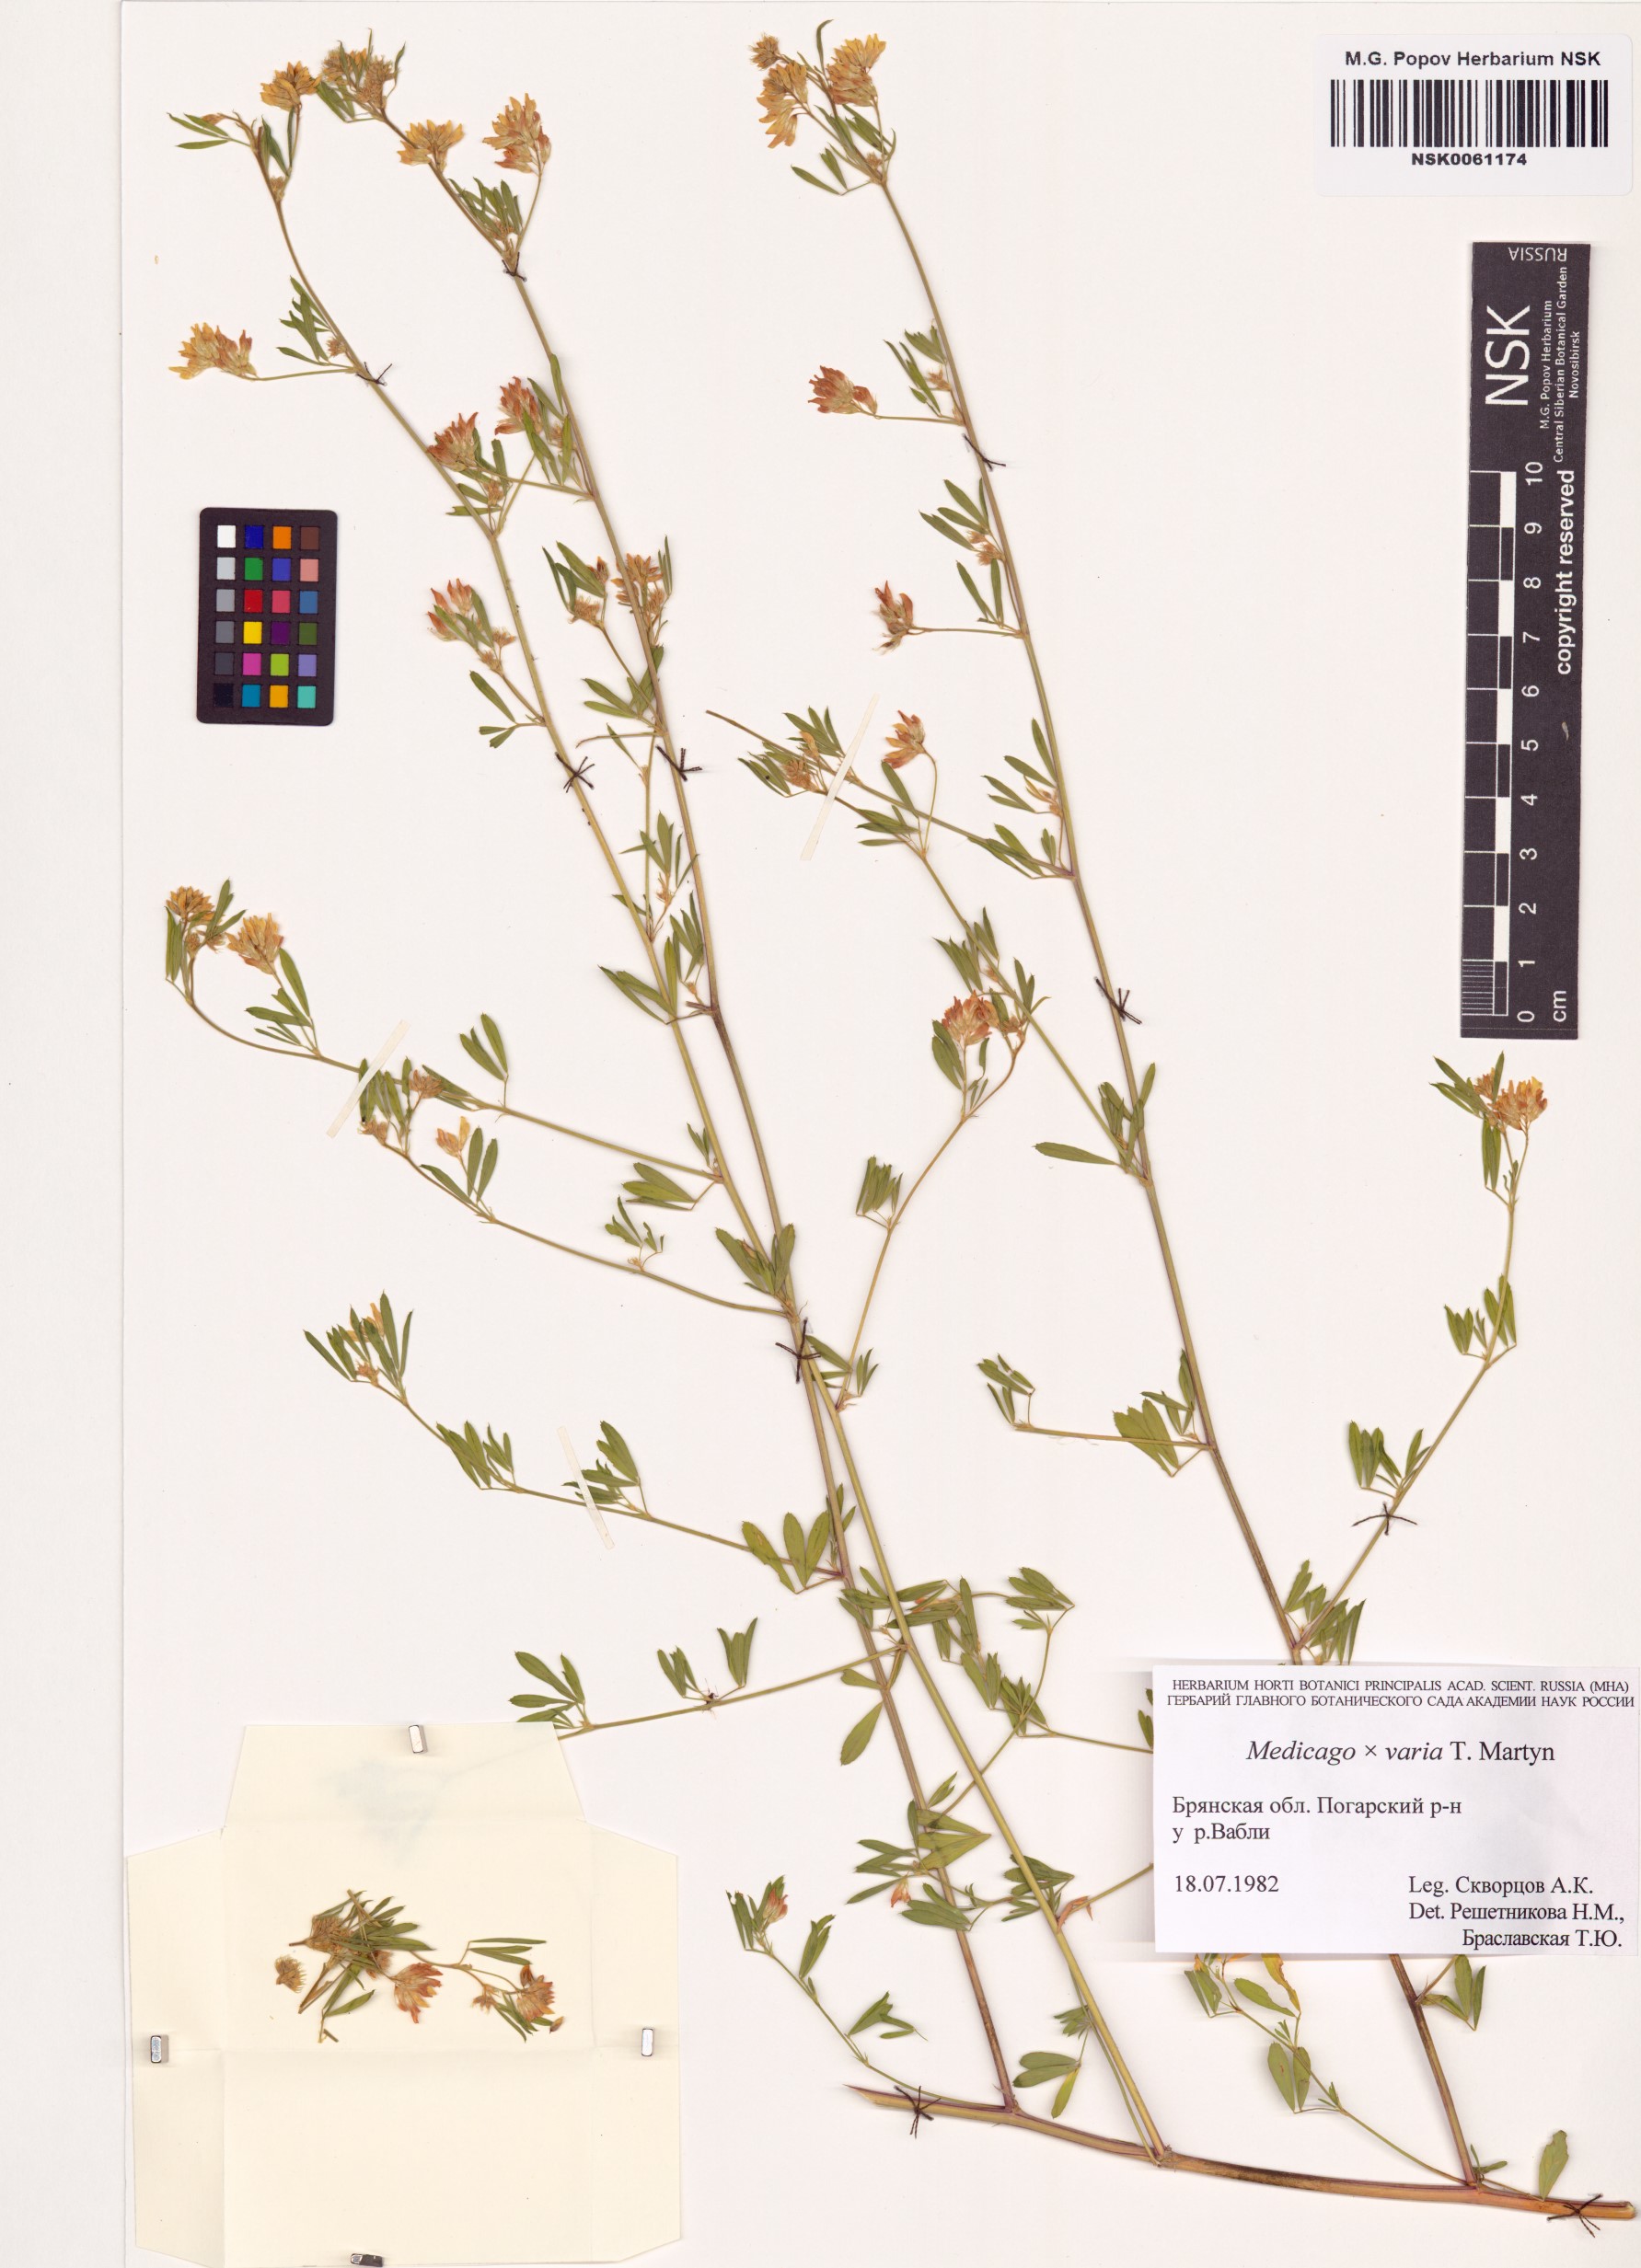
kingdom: Plantae
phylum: Tracheophyta
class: Magnoliopsida
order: Fabales
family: Fabaceae
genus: Medicago
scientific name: Medicago varia
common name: Sand lucerne
